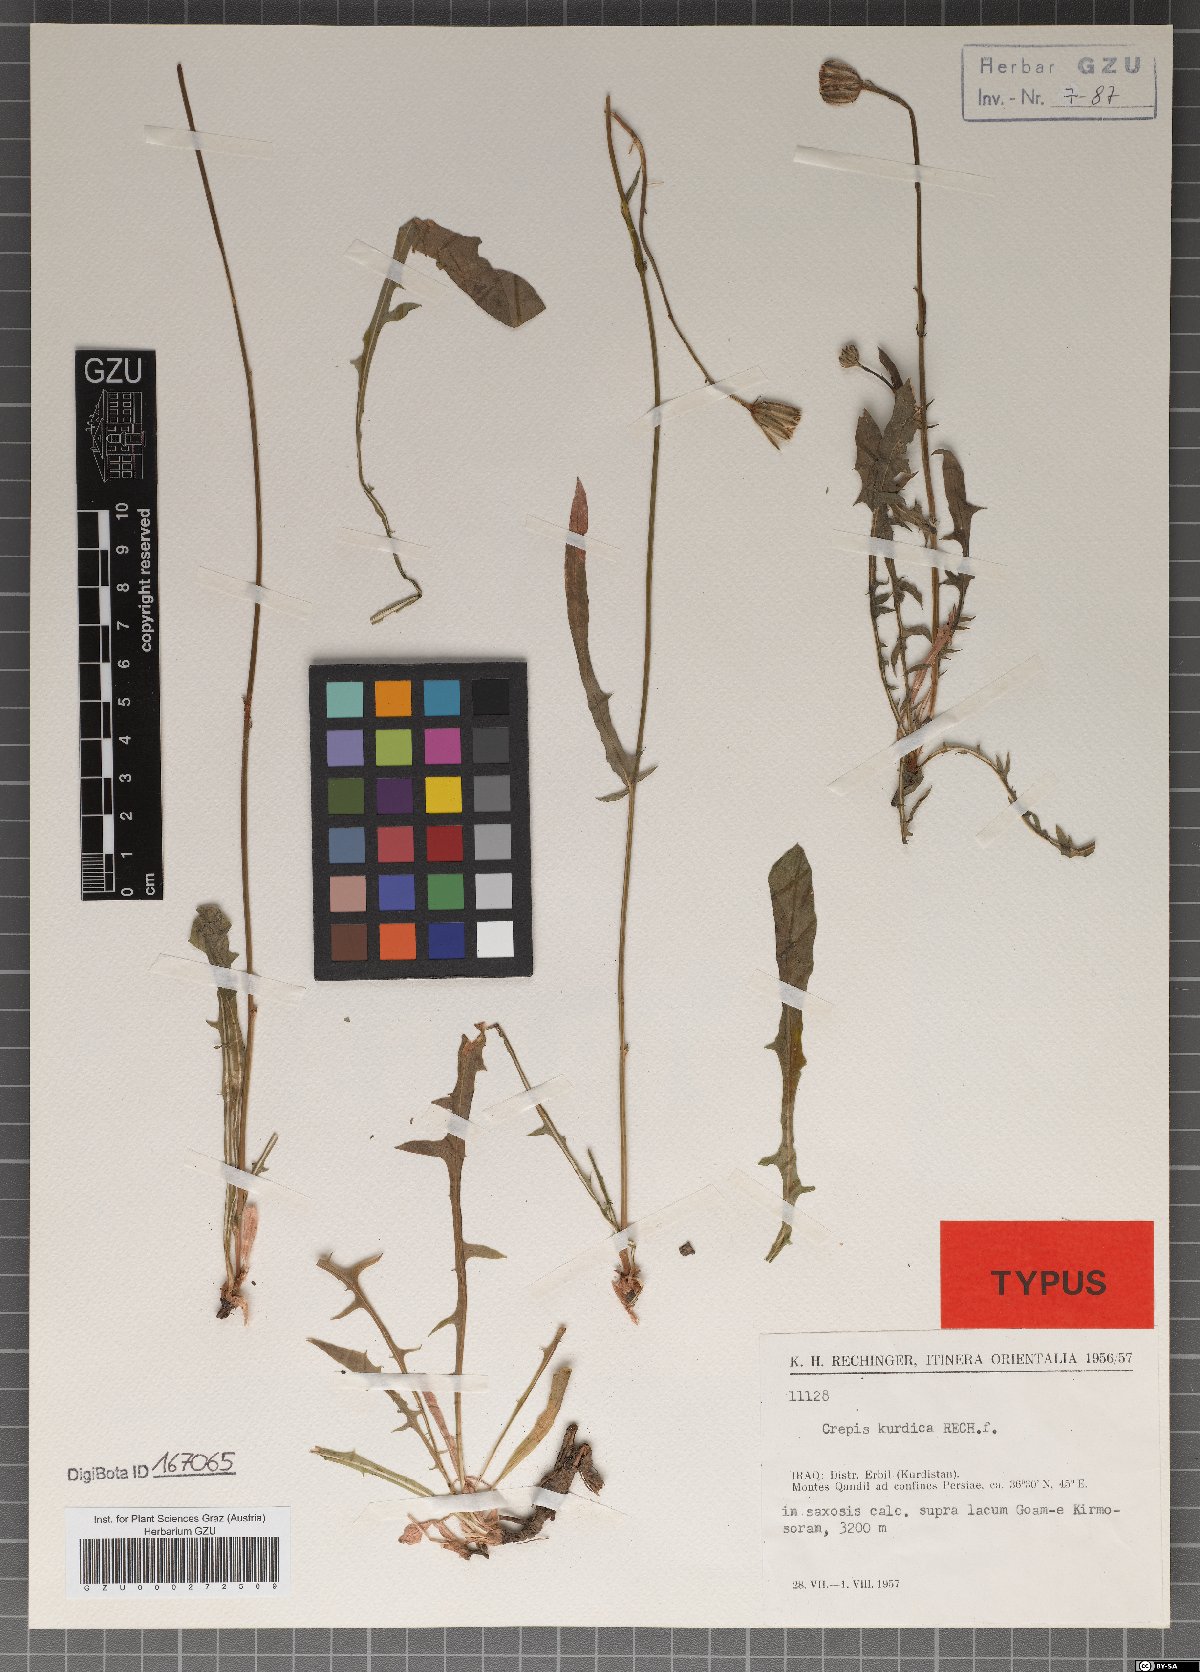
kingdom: Plantae
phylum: Tracheophyta
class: Magnoliopsida
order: Asterales
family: Asteraceae
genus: Crepis
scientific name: Crepis kurdica
